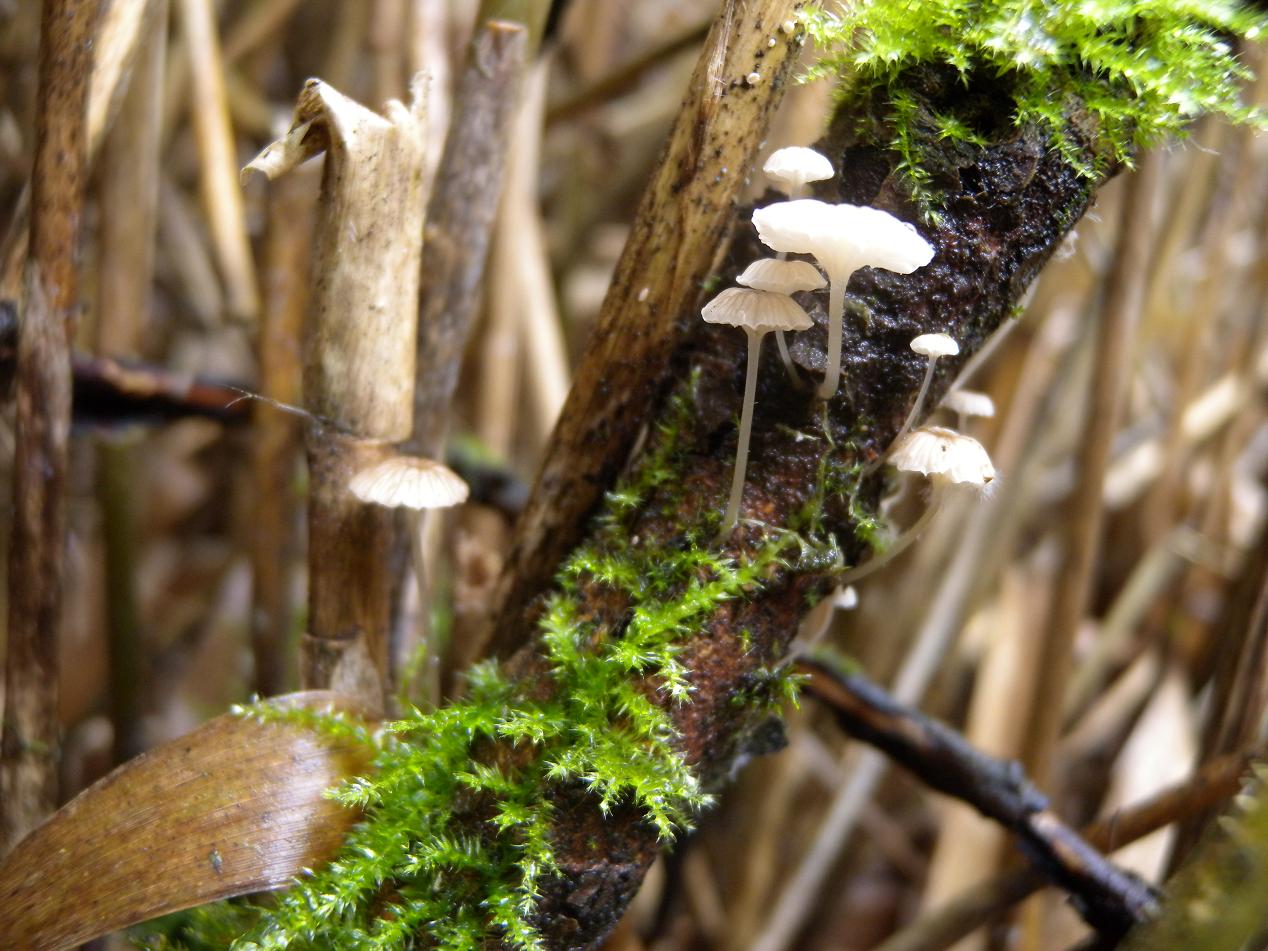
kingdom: Fungi
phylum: Basidiomycota
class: Agaricomycetes
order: Agaricales
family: Porotheleaceae
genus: Phloeomana
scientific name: Phloeomana speirea
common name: kvist-huesvamp
